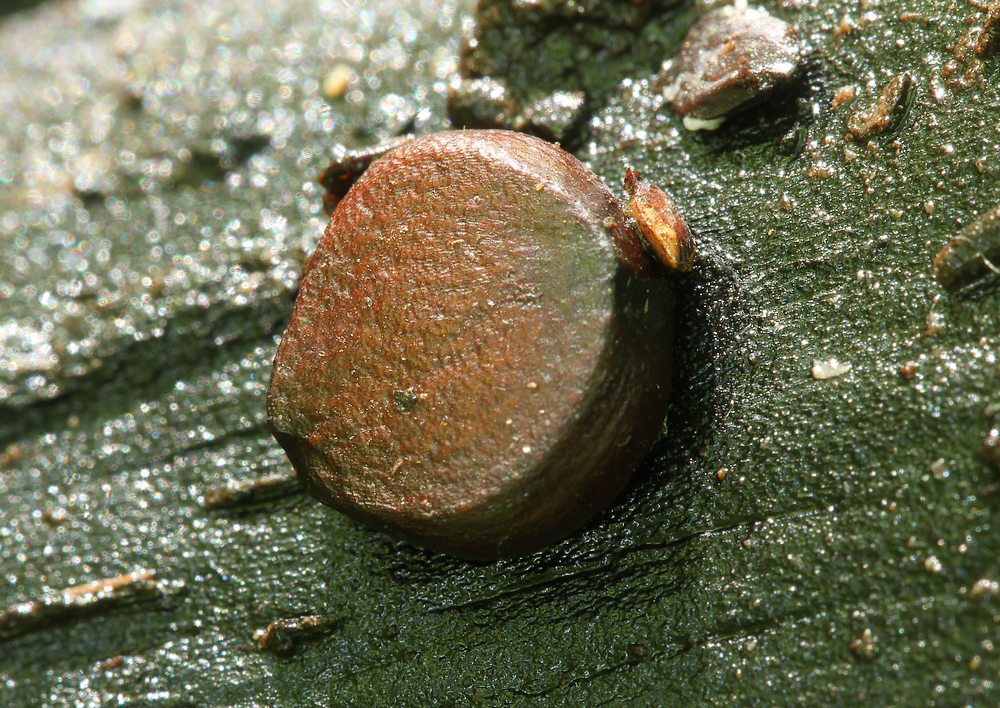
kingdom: Fungi
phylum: Ascomycota
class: Pezizomycetes
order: Pezizales
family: Pezizaceae
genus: Adelphella
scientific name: Adelphella babingtonii
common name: almindelig bækbæger
